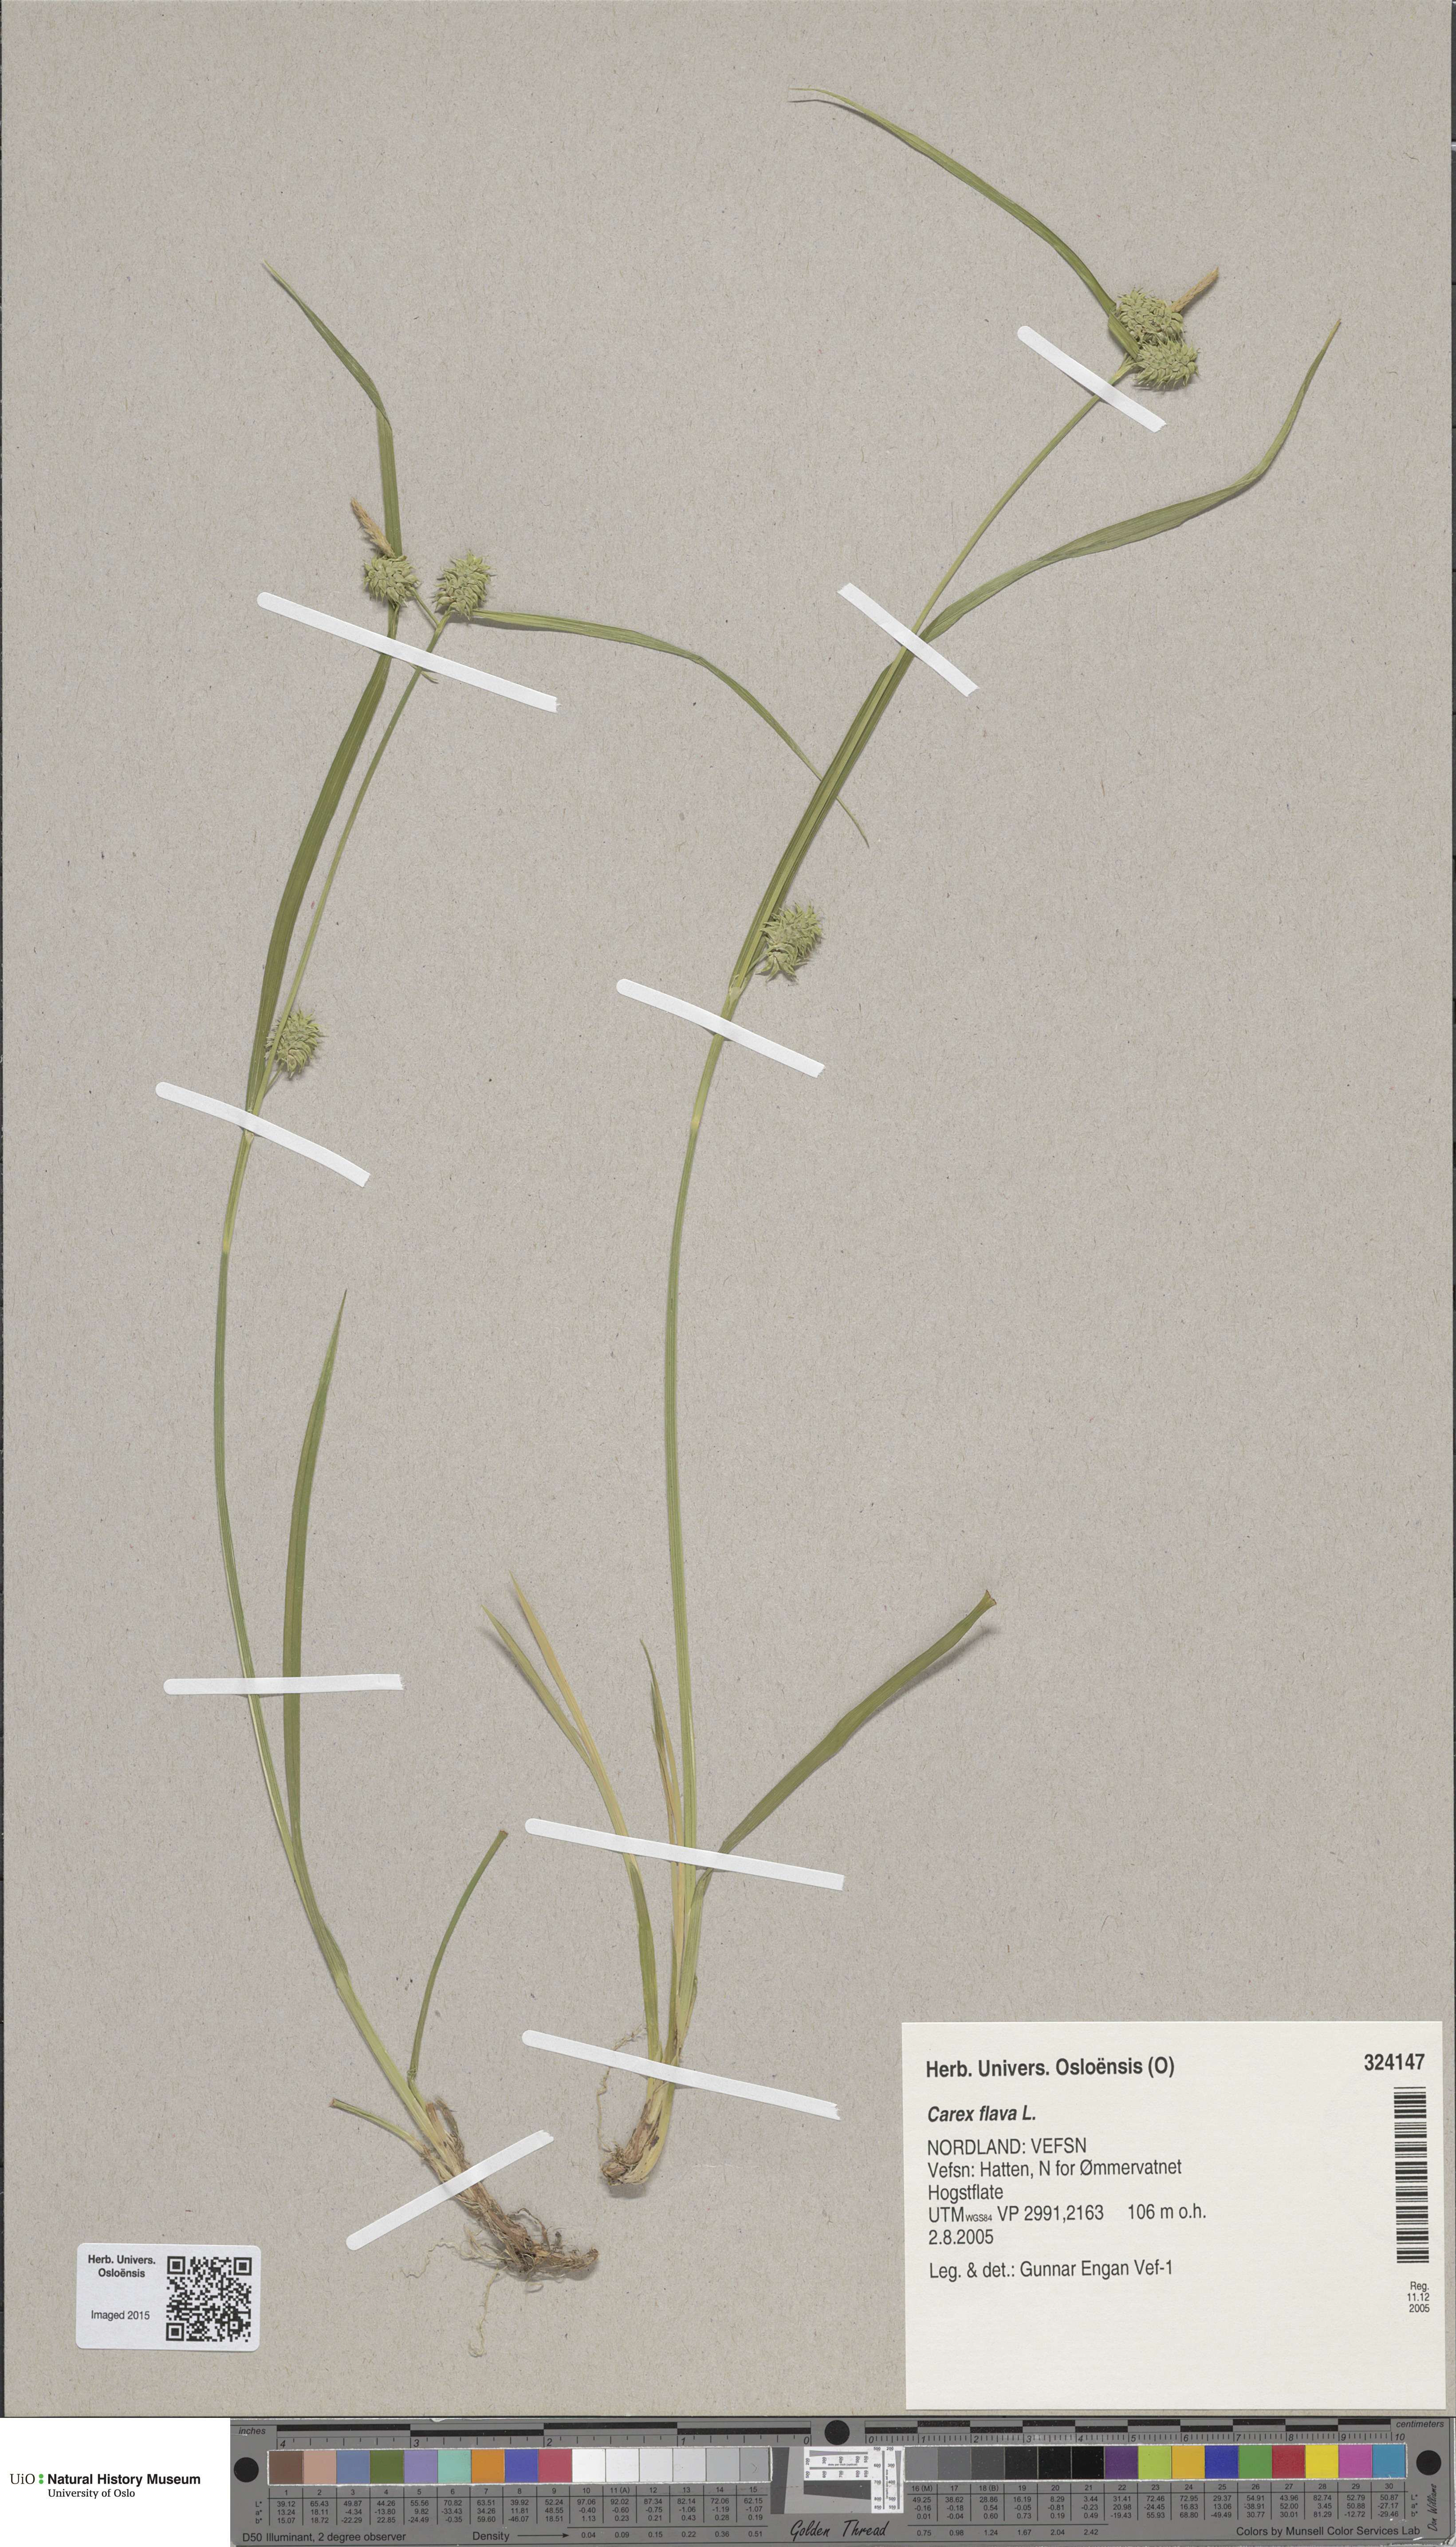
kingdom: Plantae
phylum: Tracheophyta
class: Liliopsida
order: Poales
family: Cyperaceae
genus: Carex
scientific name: Carex flava
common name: Large yellow-sedge
